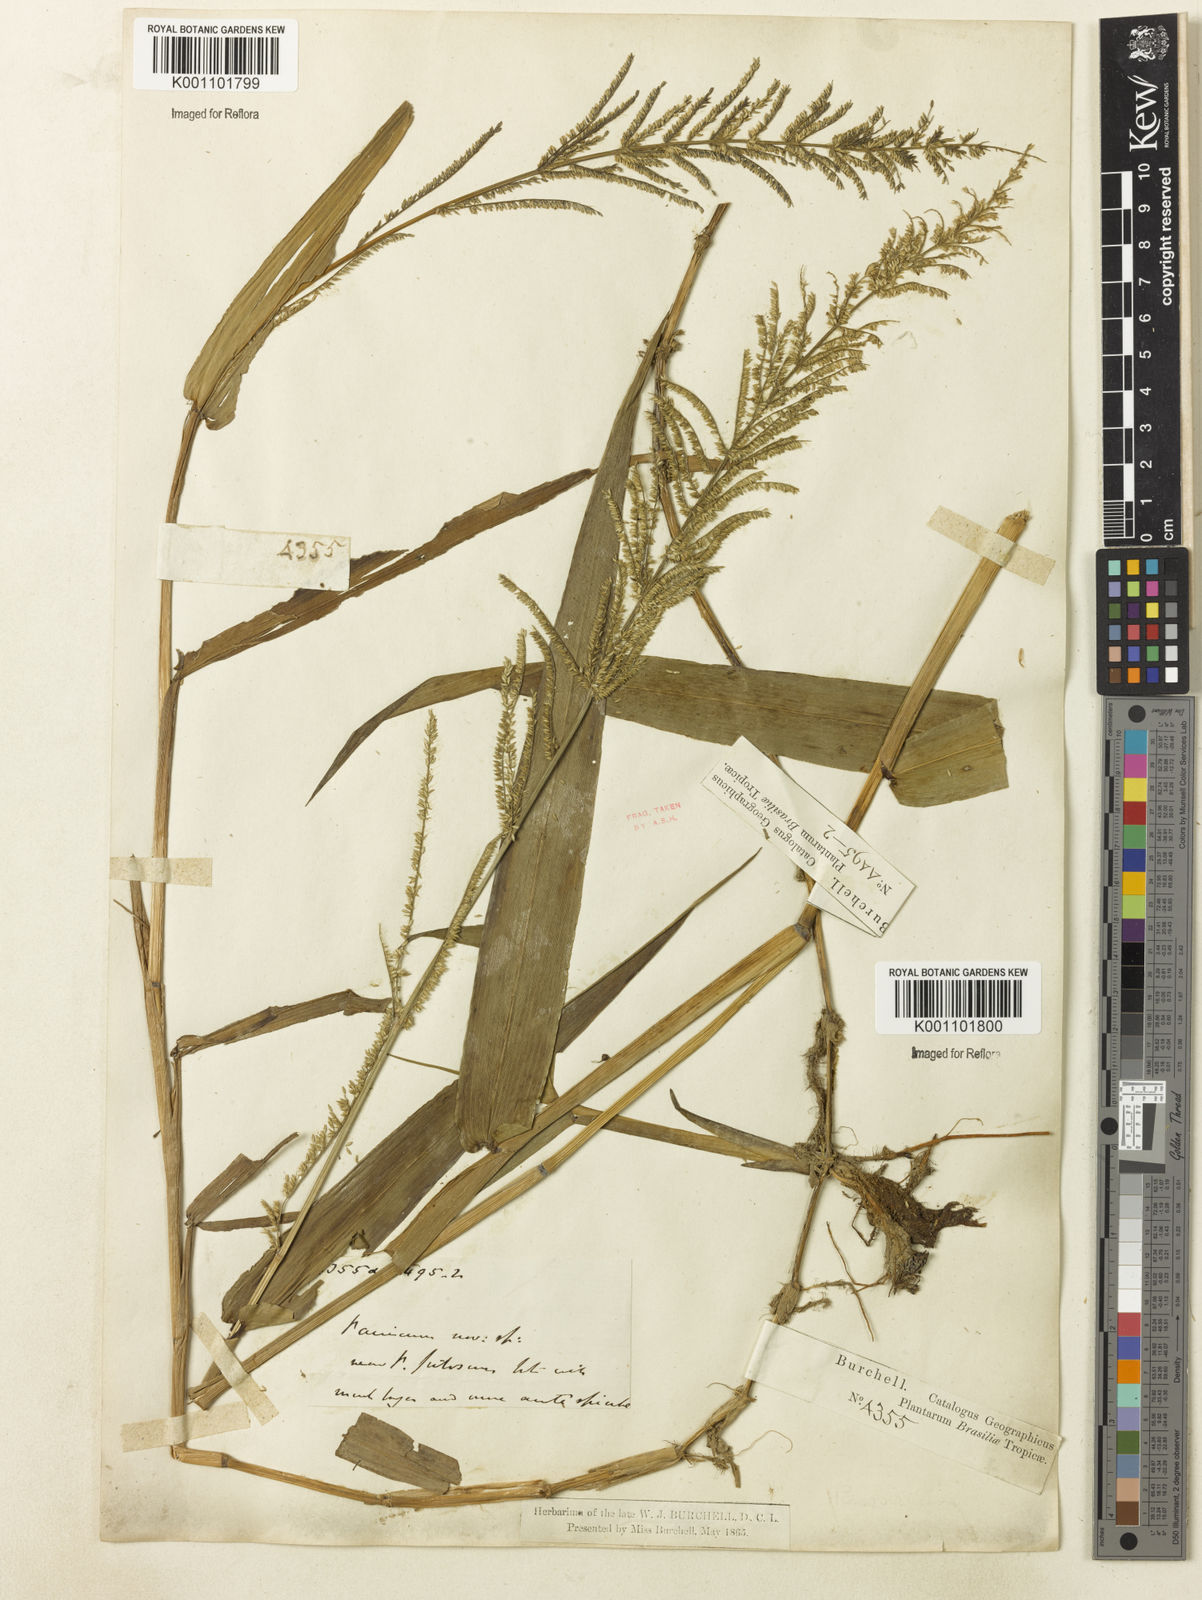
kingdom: Plantae
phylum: Tracheophyta
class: Liliopsida
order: Poales
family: Poaceae
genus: Panicum
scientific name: Panicum
